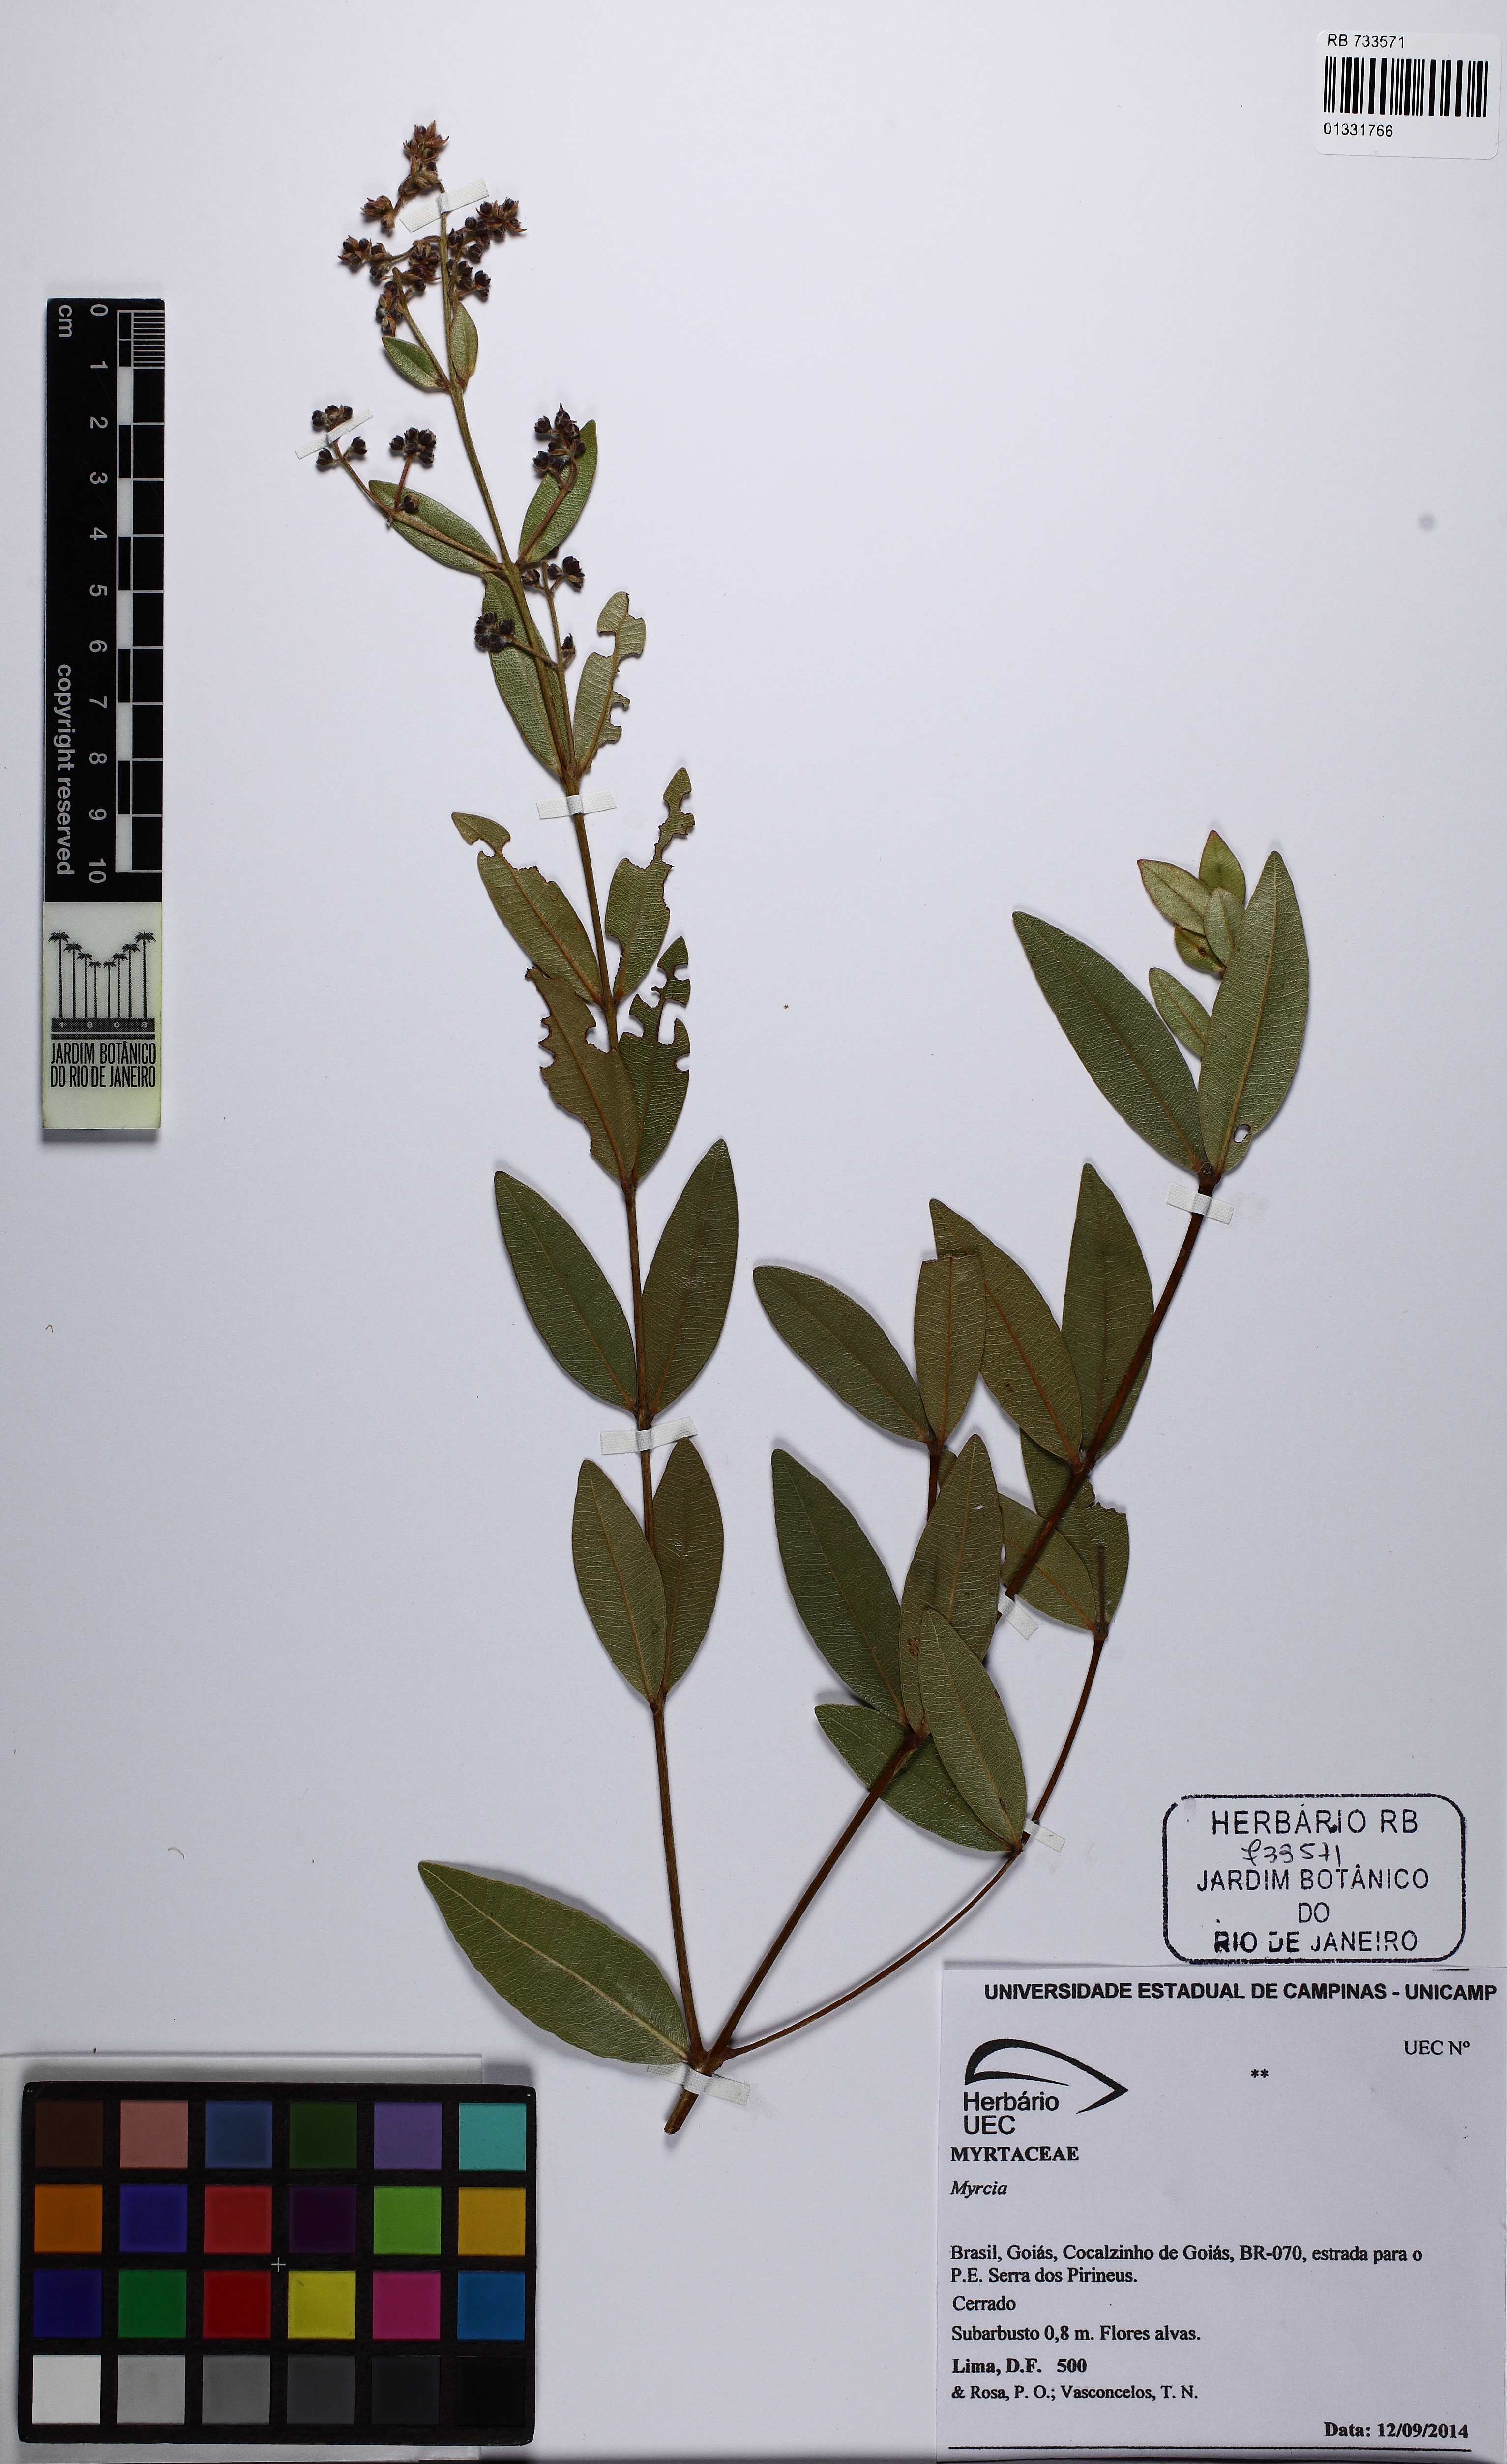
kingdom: Plantae
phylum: Tracheophyta
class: Magnoliopsida
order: Myrtales
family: Myrtaceae
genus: Myrcia
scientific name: Myrcia goyazensis
